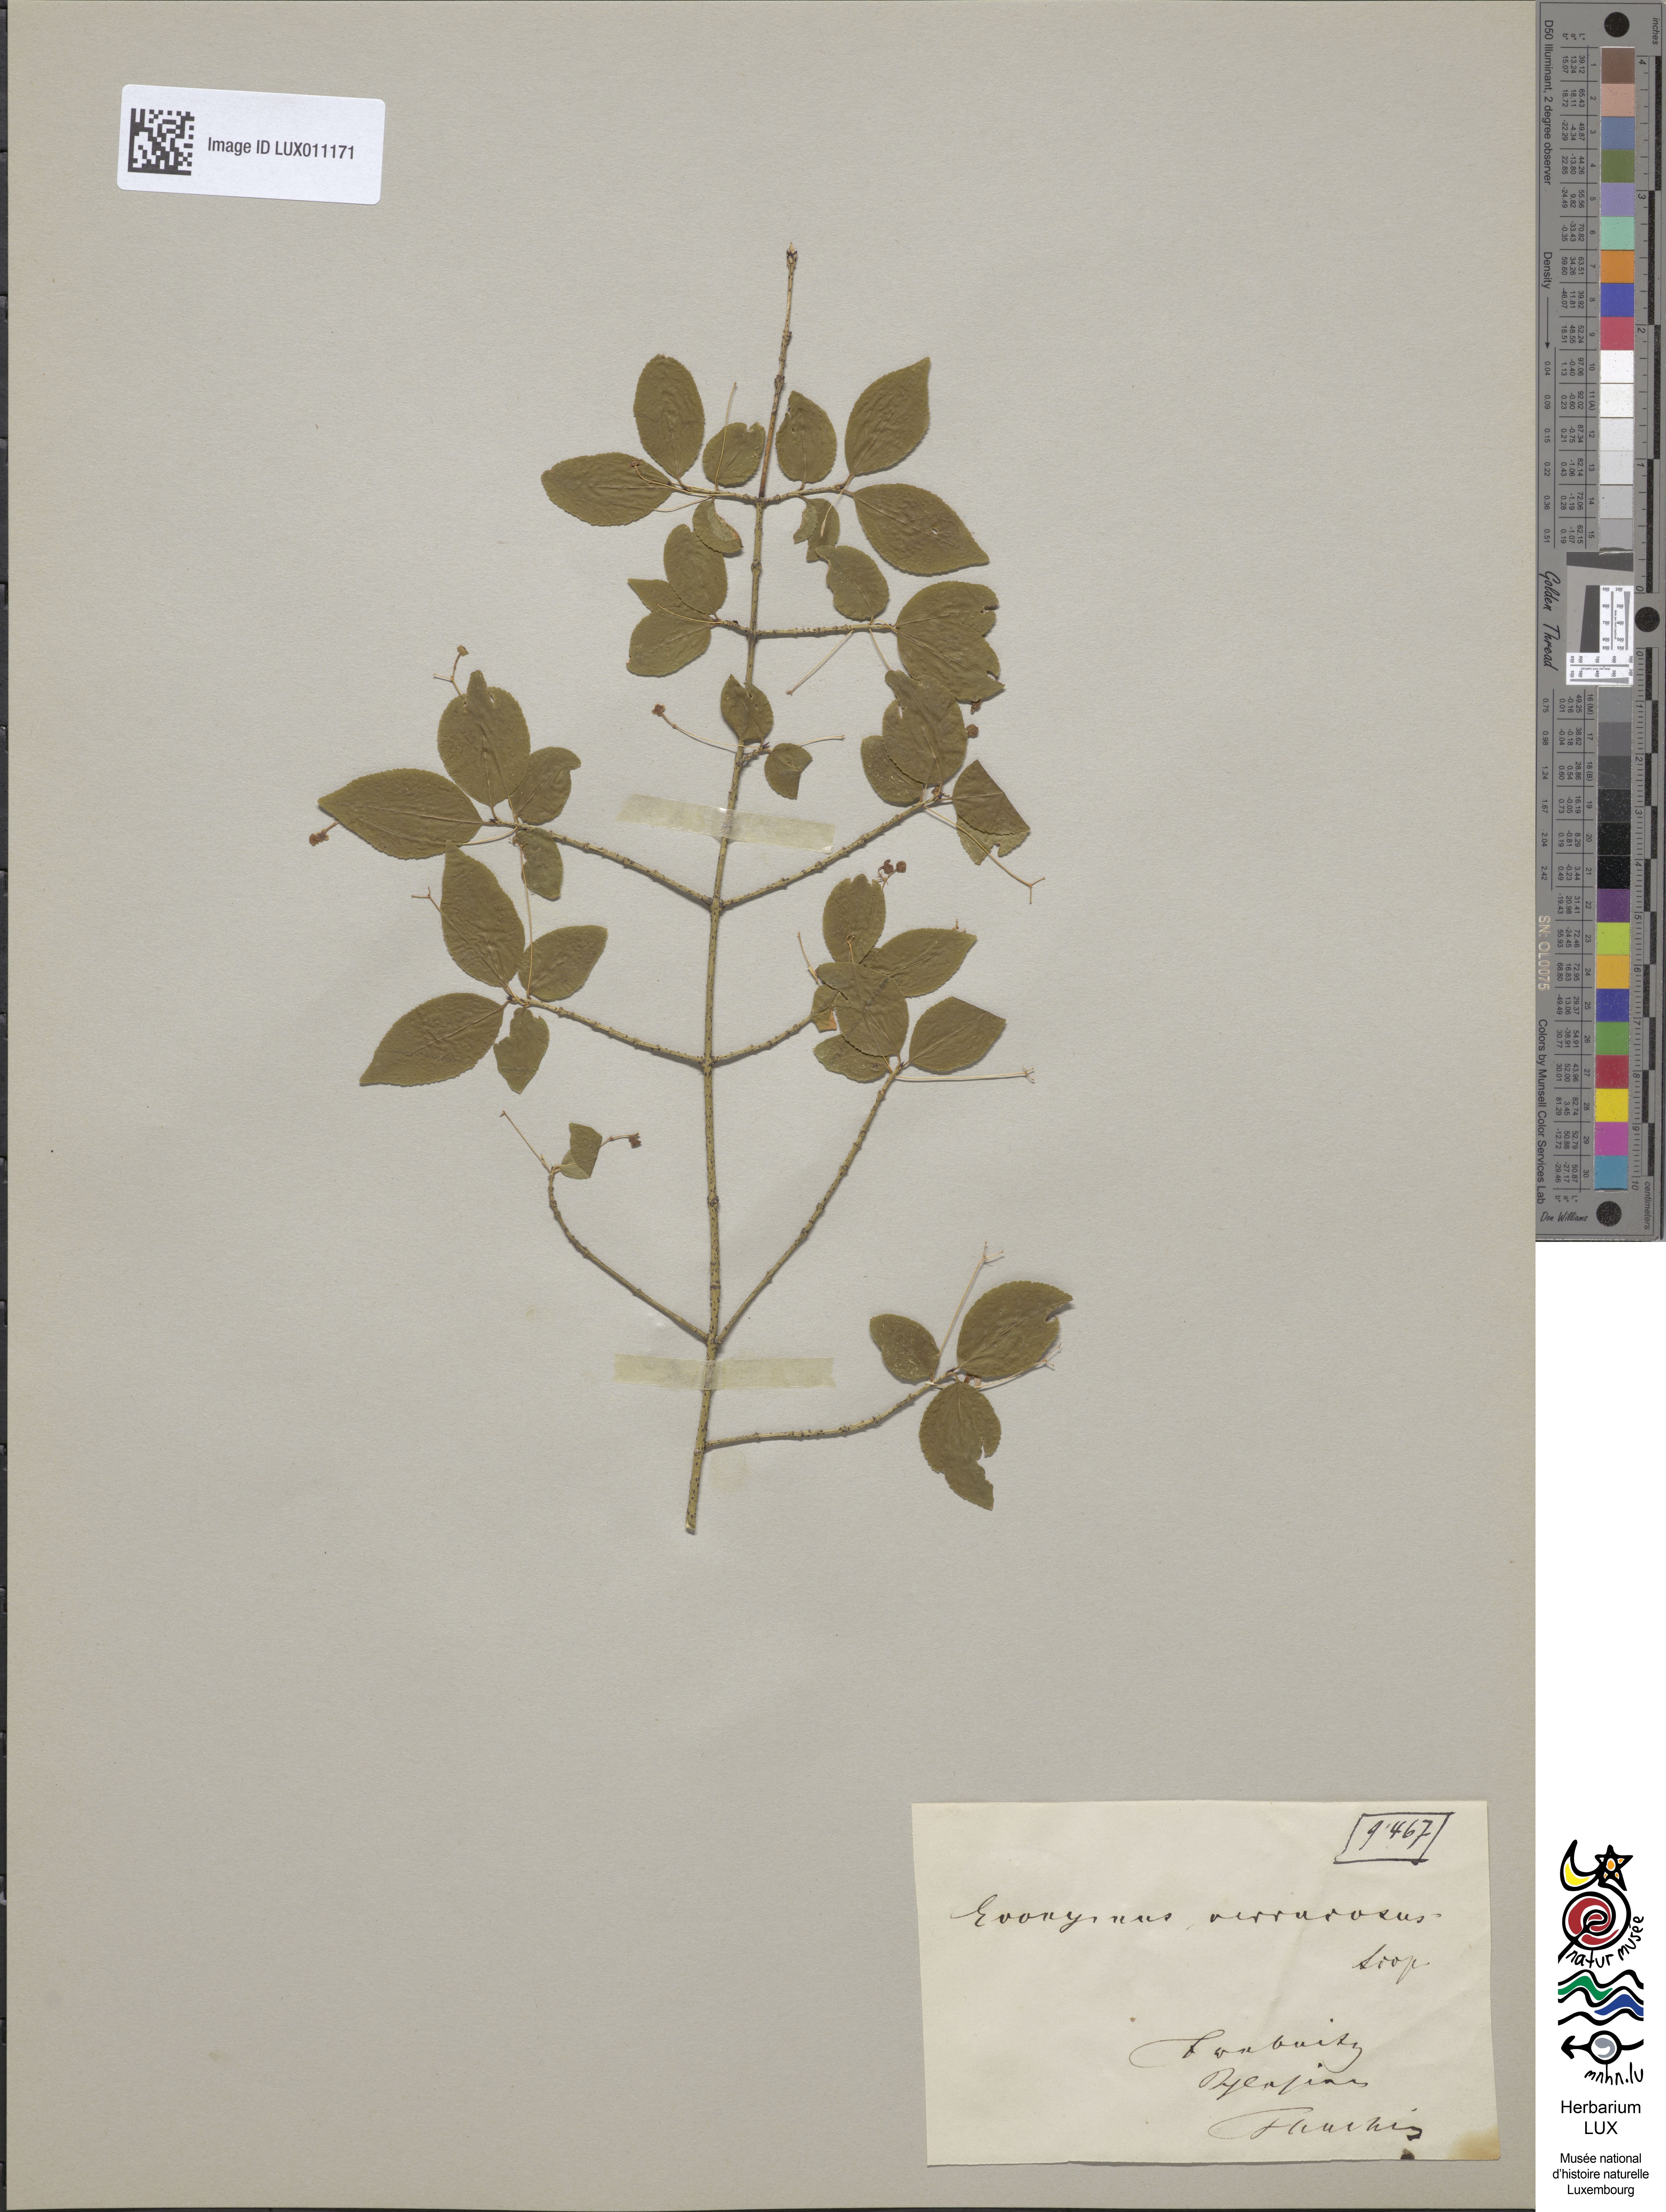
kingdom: Plantae
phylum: Tracheophyta
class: Magnoliopsida
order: Celastrales
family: Celastraceae
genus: Euonymus
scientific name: Euonymus verrucosus
